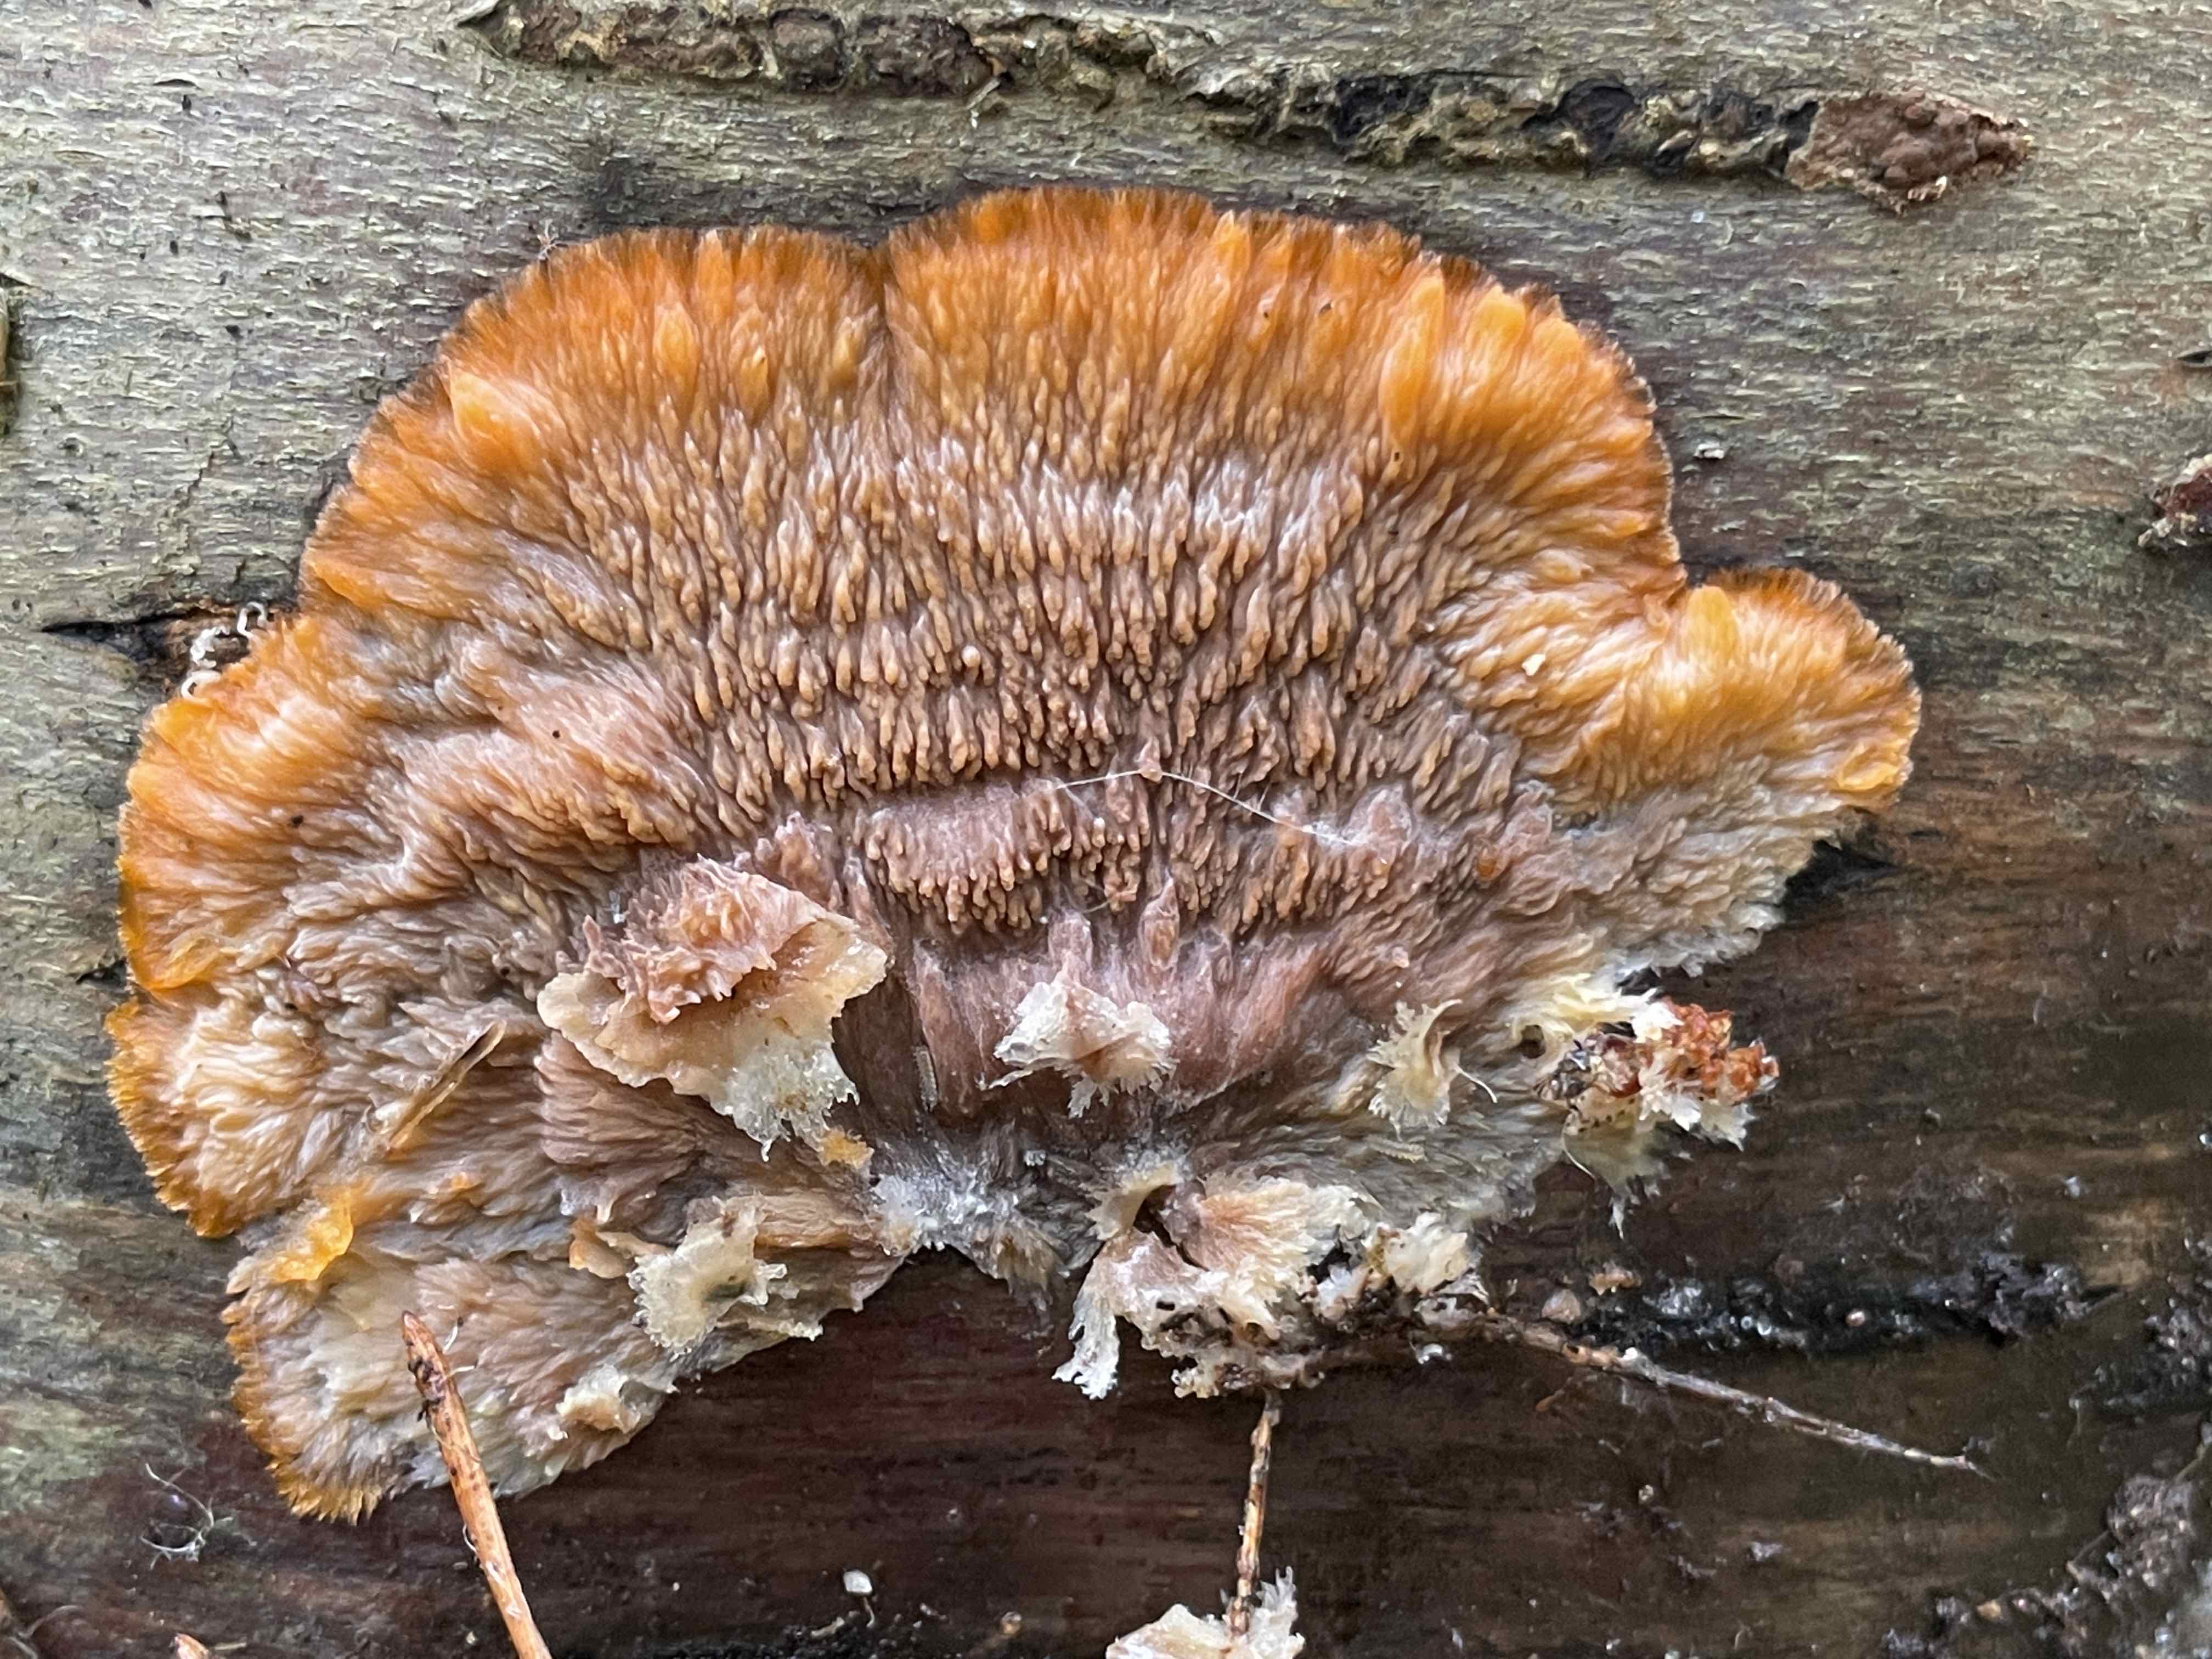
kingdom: Fungi
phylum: Basidiomycota
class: Agaricomycetes
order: Polyporales
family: Meruliaceae
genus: Phlebia
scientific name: Phlebia radiata
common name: stråle-åresvamp
